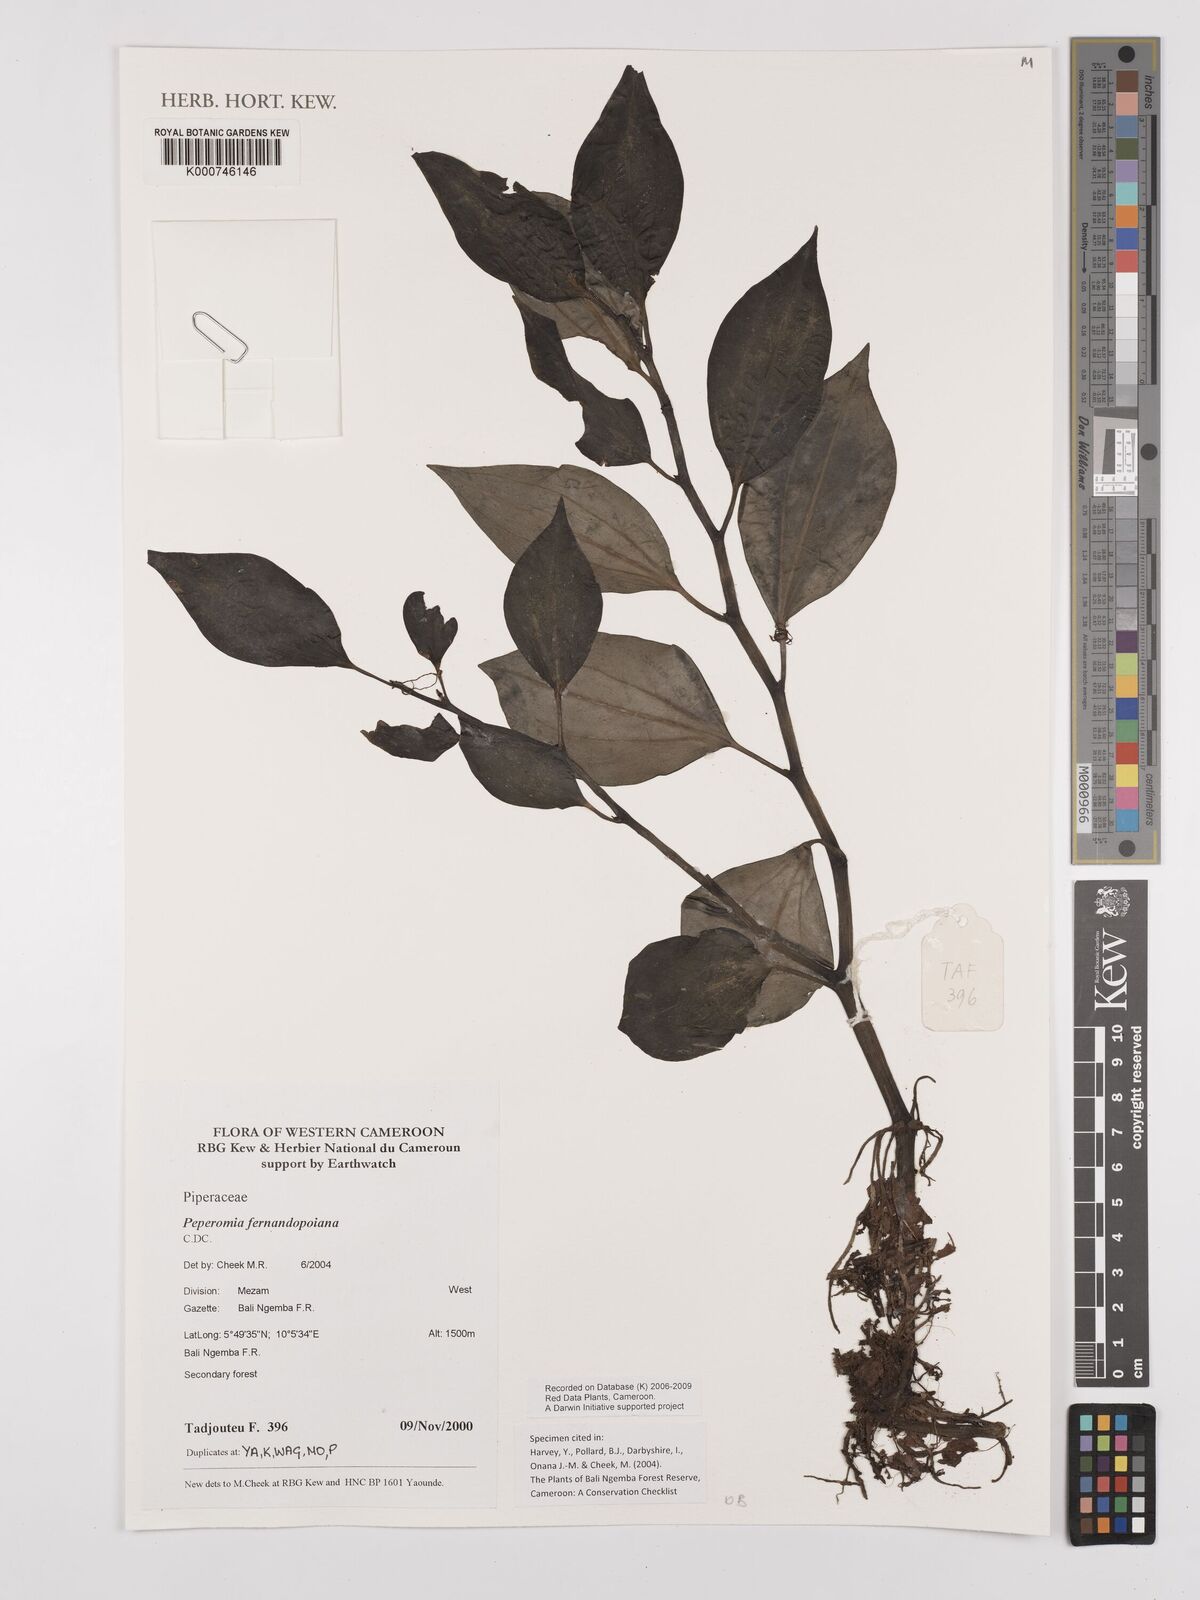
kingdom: Plantae
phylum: Tracheophyta
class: Magnoliopsida
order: Piperales
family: Piperaceae
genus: Peperomia
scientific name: Peperomia fernandopoiana
